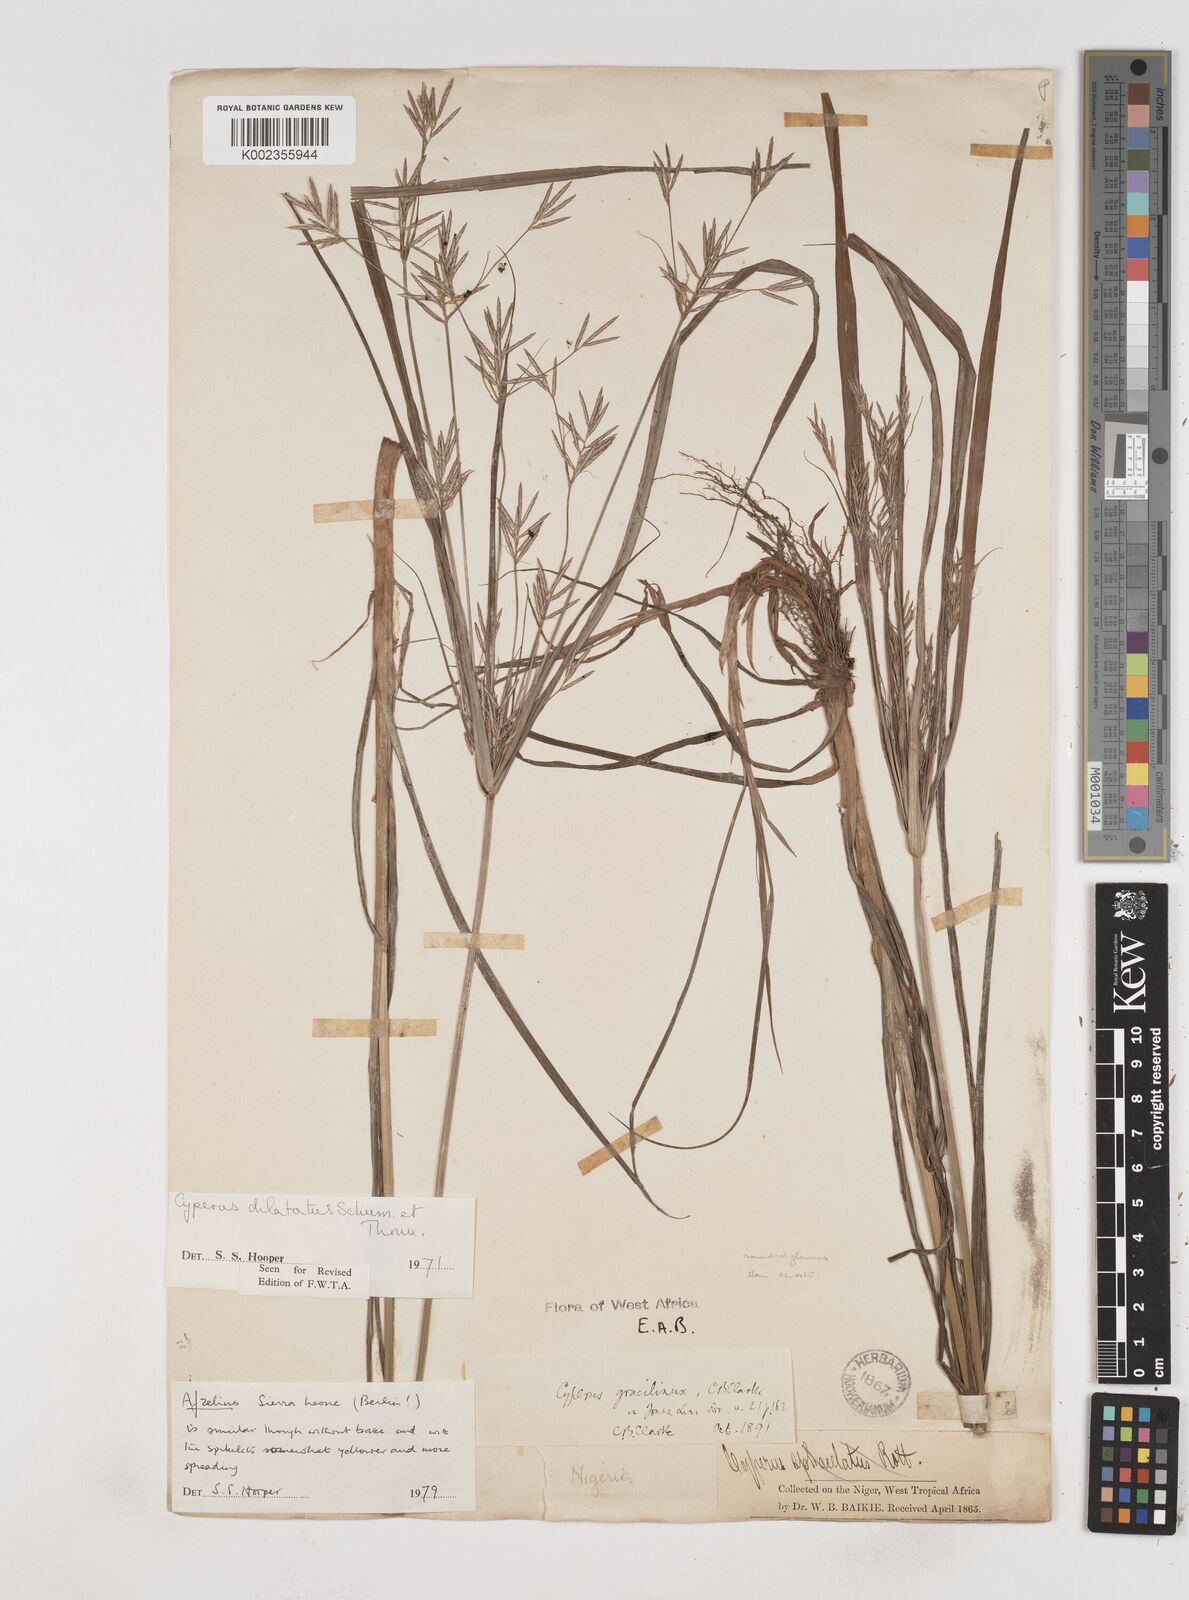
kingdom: Plantae
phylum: Tracheophyta
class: Liliopsida
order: Poales
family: Cyperaceae
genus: Cyperus
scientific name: Cyperus dilatatus
